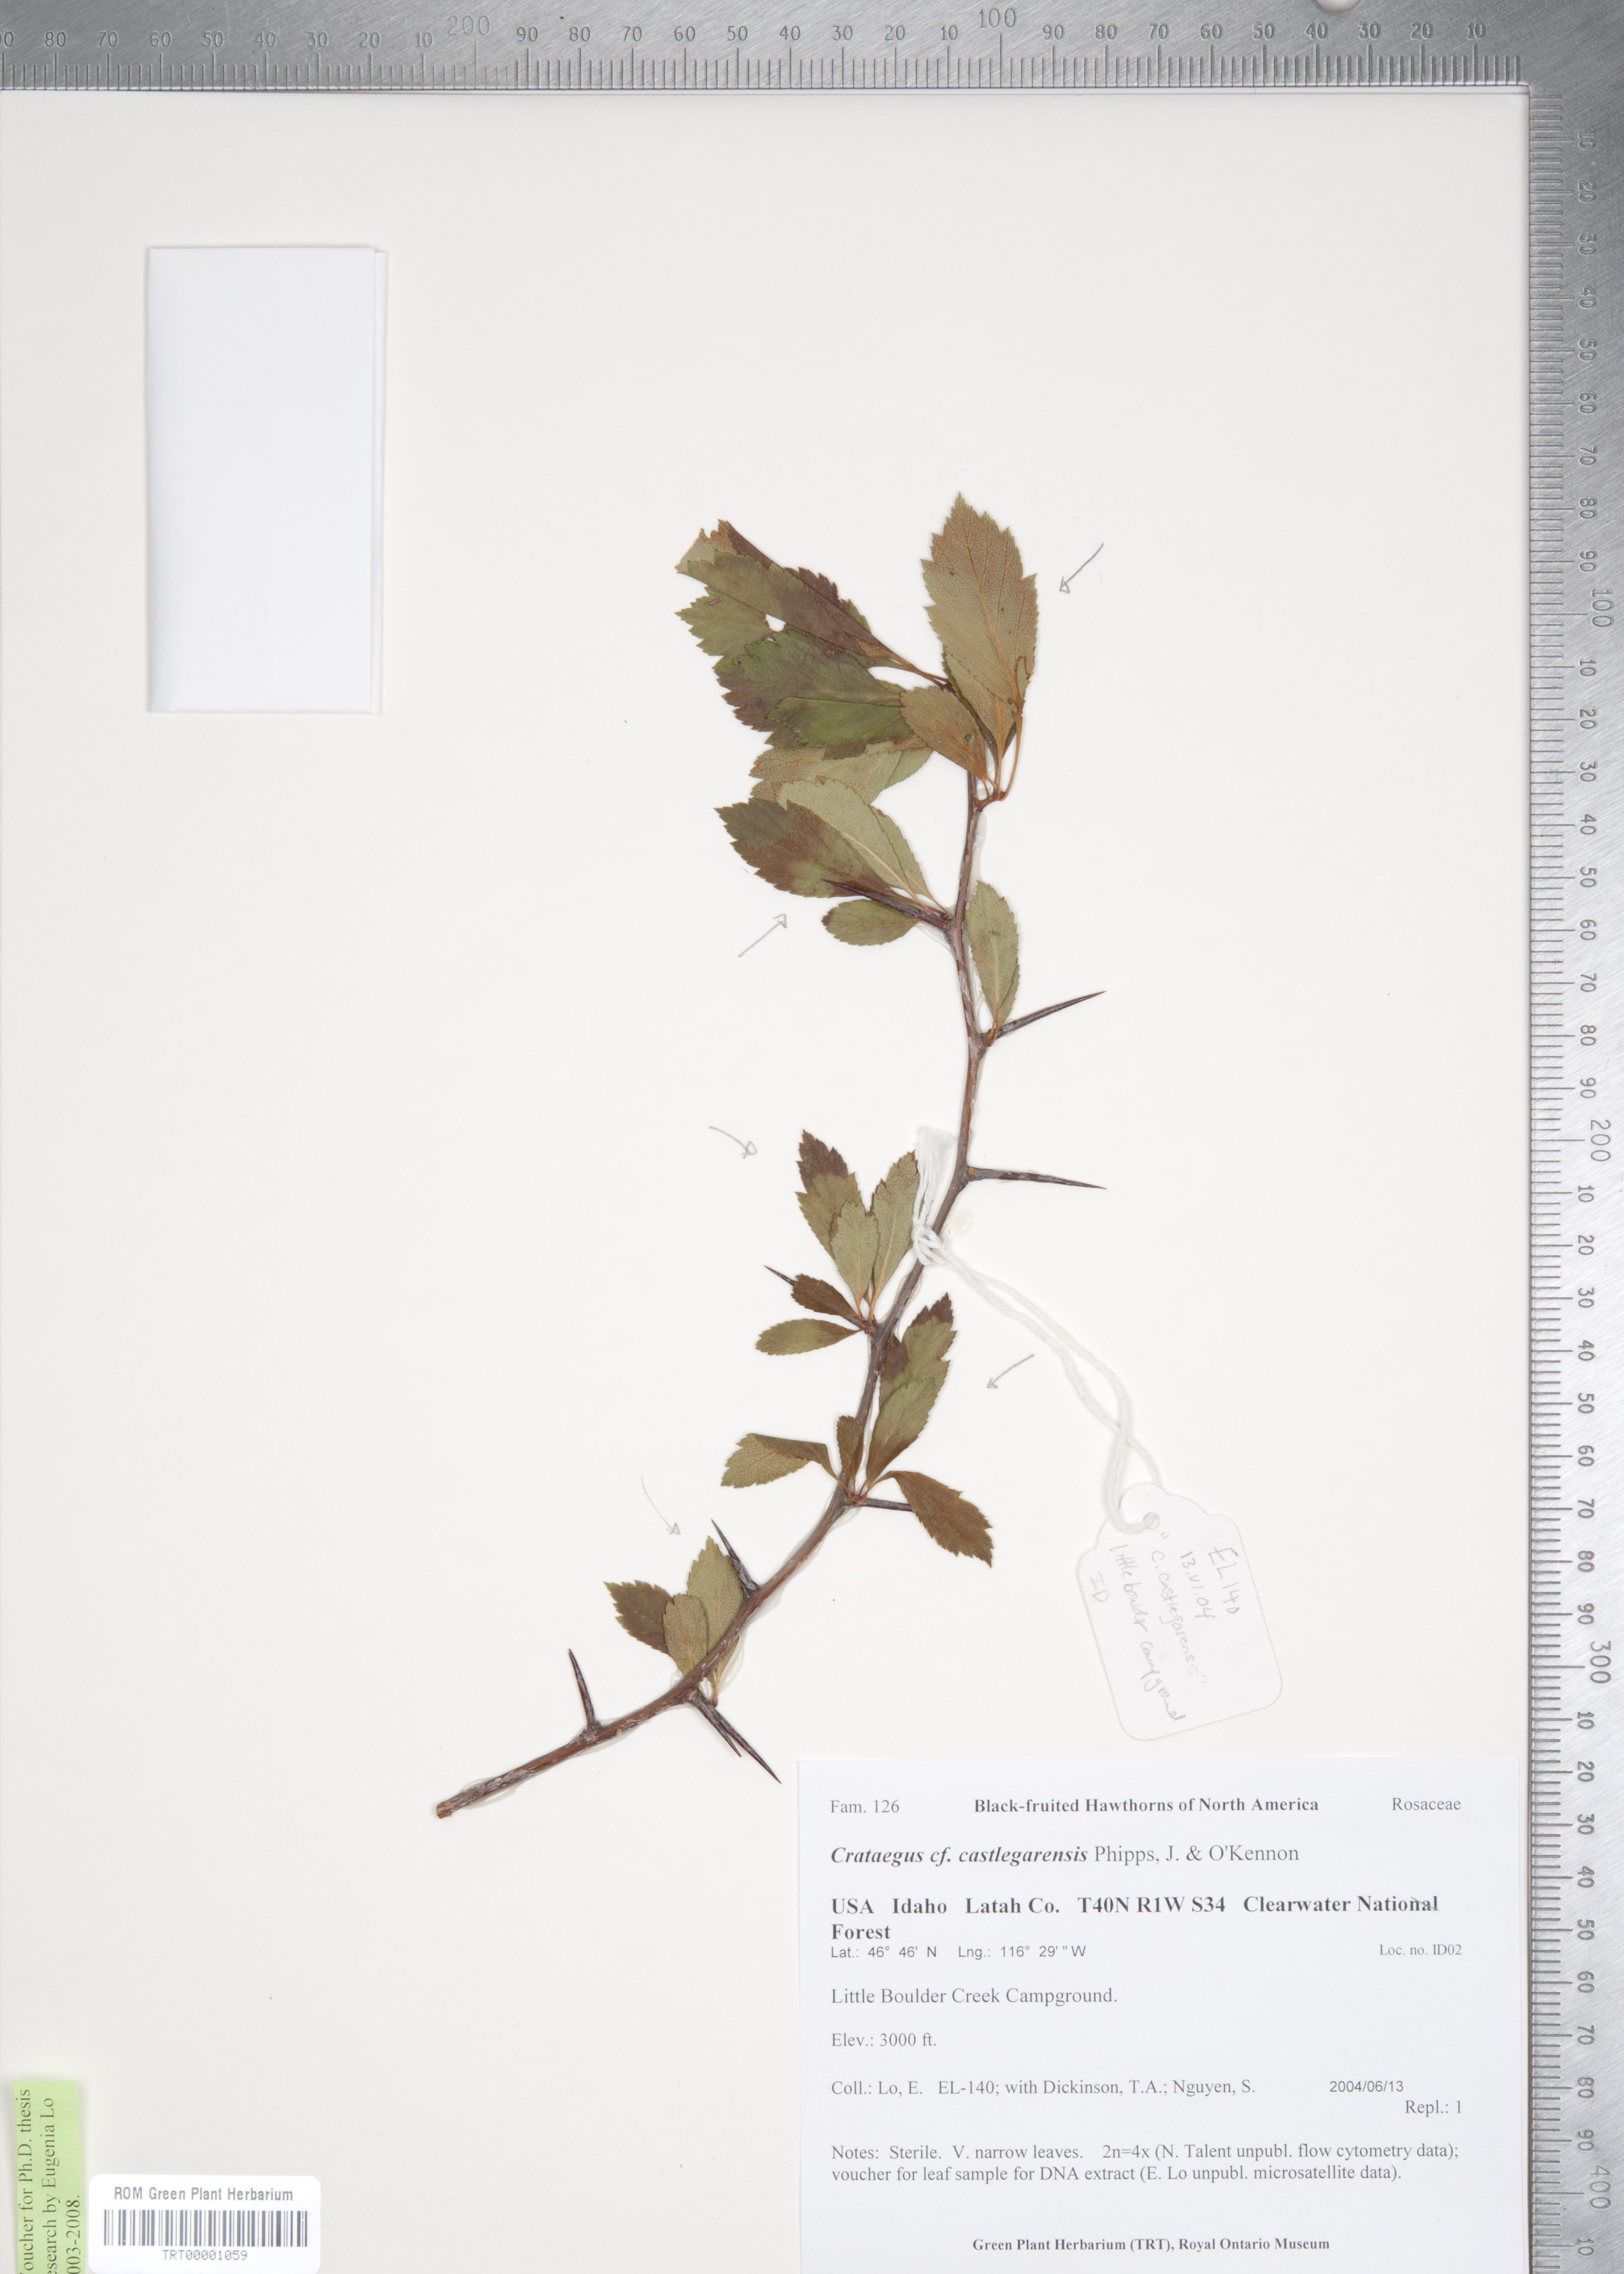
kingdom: Plantae
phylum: Tracheophyta
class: Magnoliopsida
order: Rosales
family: Rosaceae
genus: Crataegus
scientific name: Crataegus castlegarensis
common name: Castlegar hawthorn
